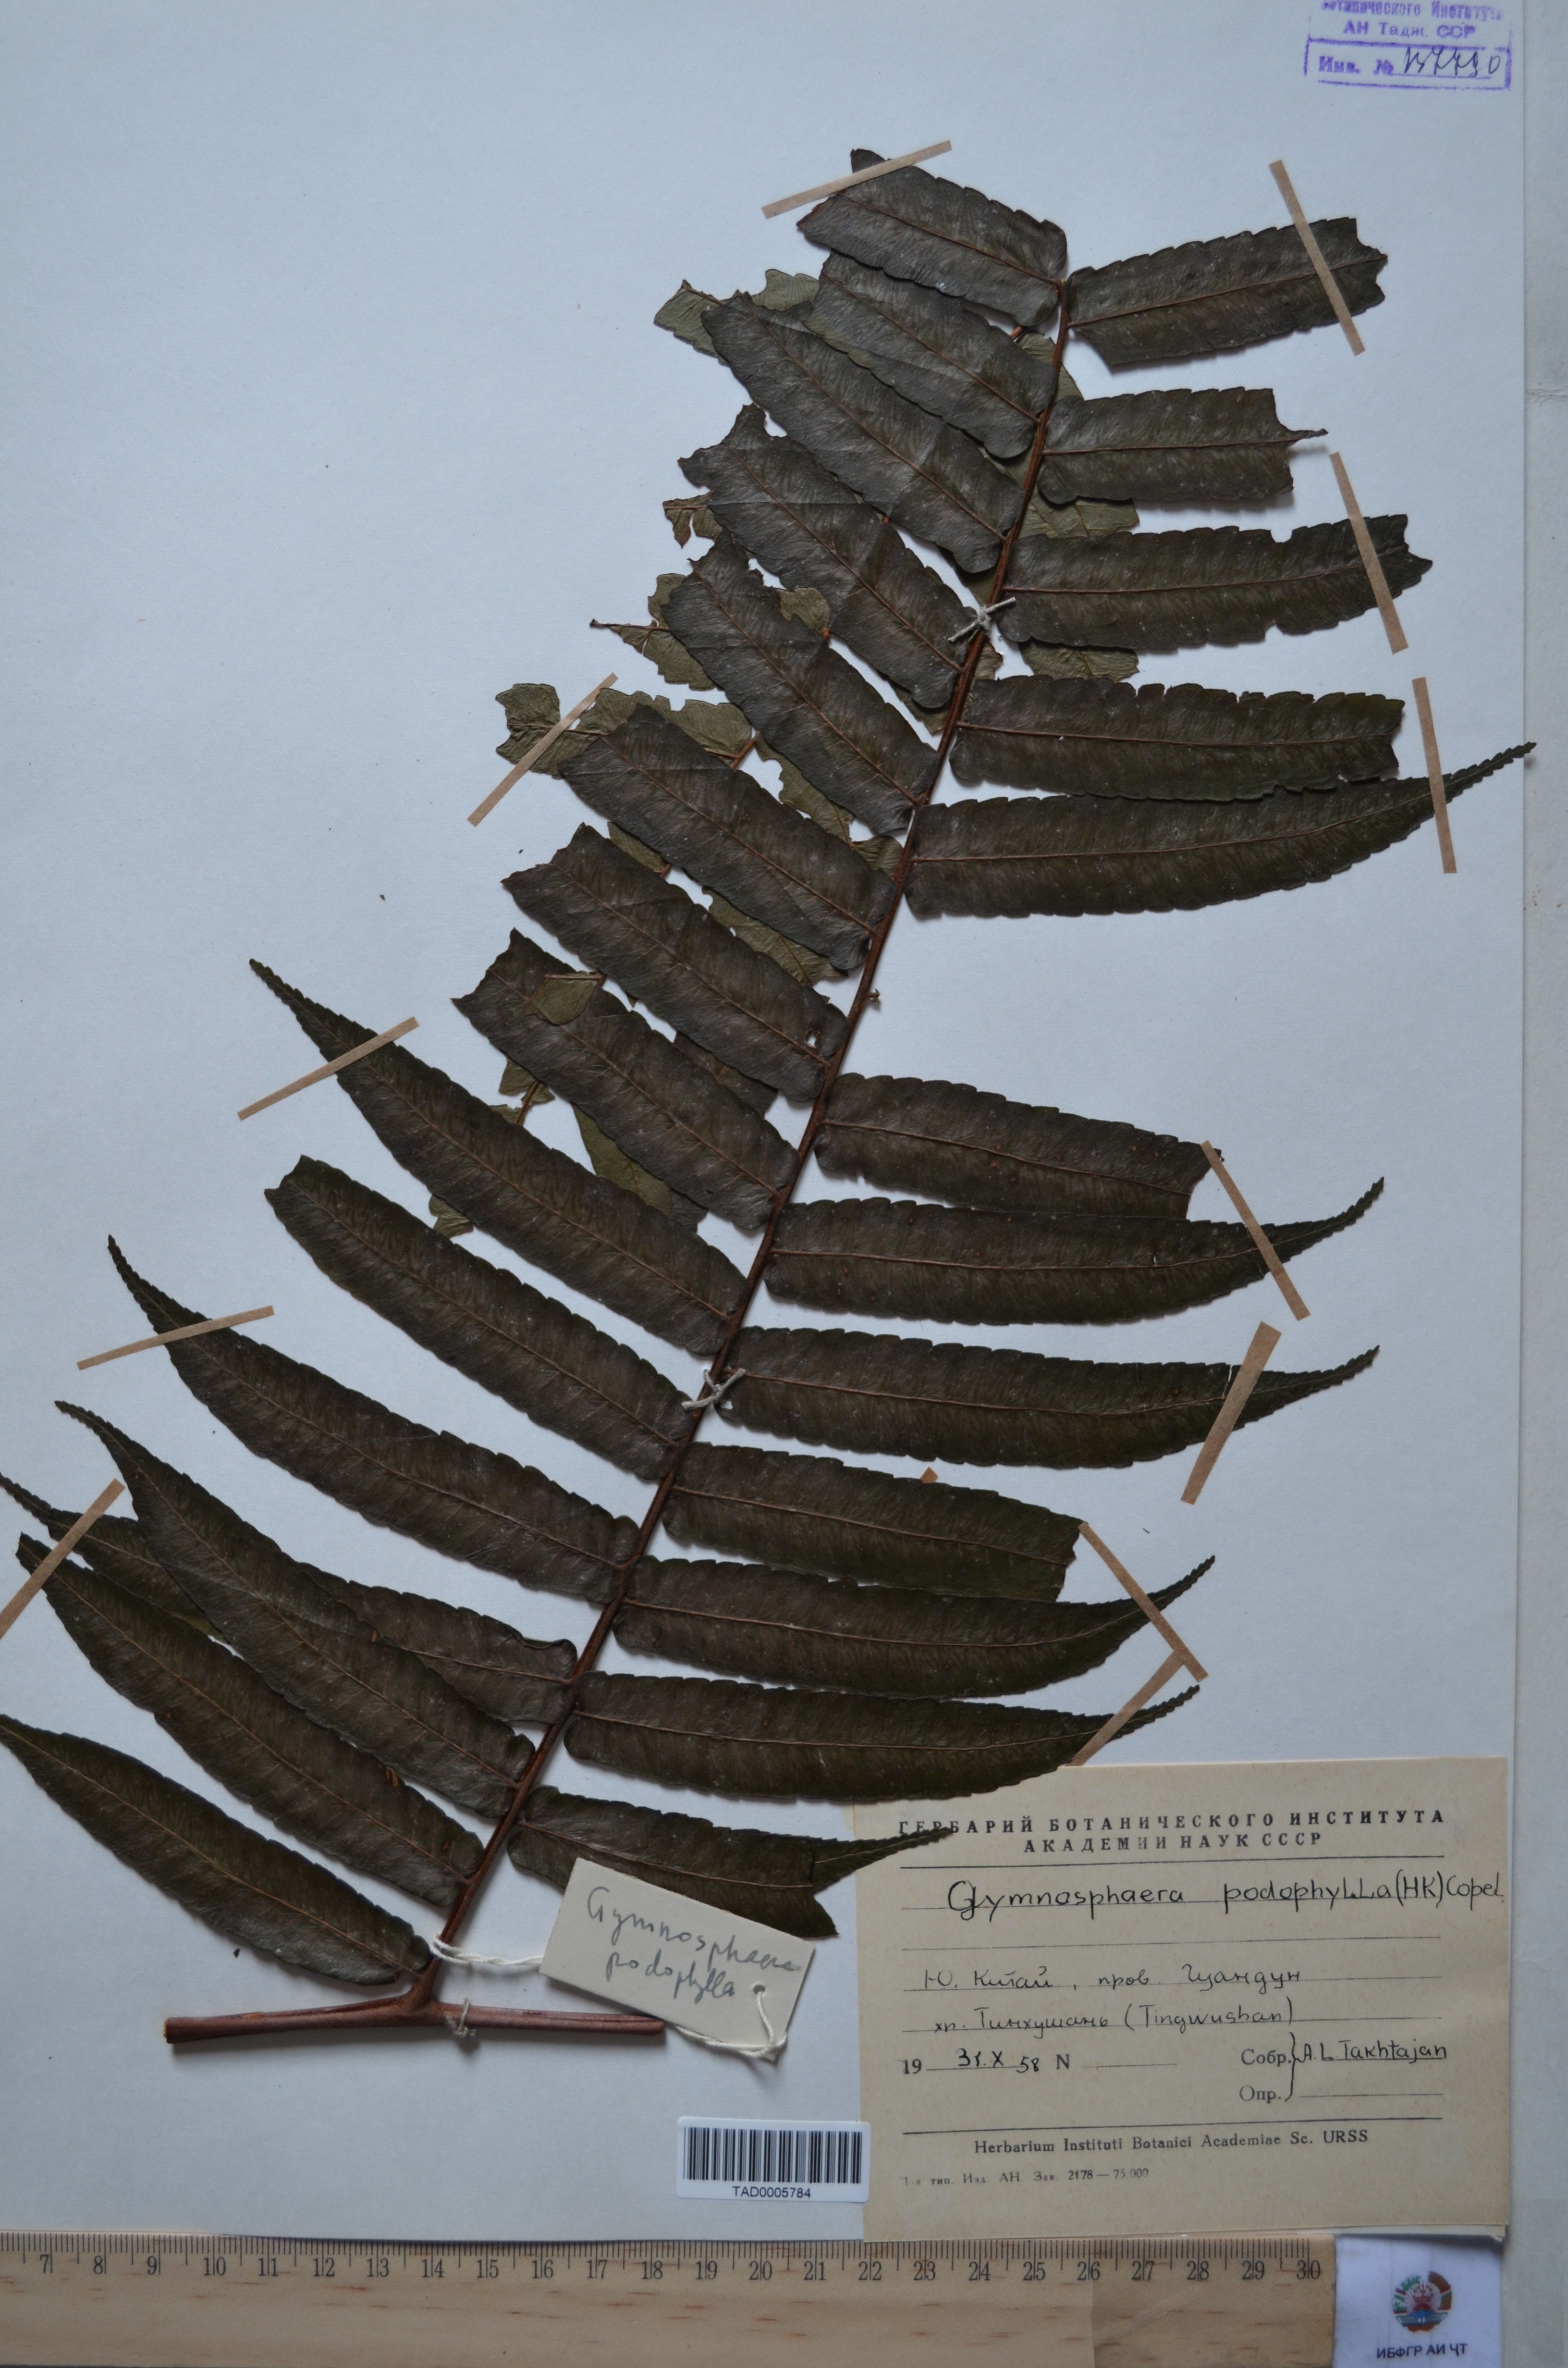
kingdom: Plantae
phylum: Tracheophyta
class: Polypodiopsida
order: Cyatheales
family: Cyatheaceae
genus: Gymnosphaera
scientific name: Gymnosphaera podophylla
